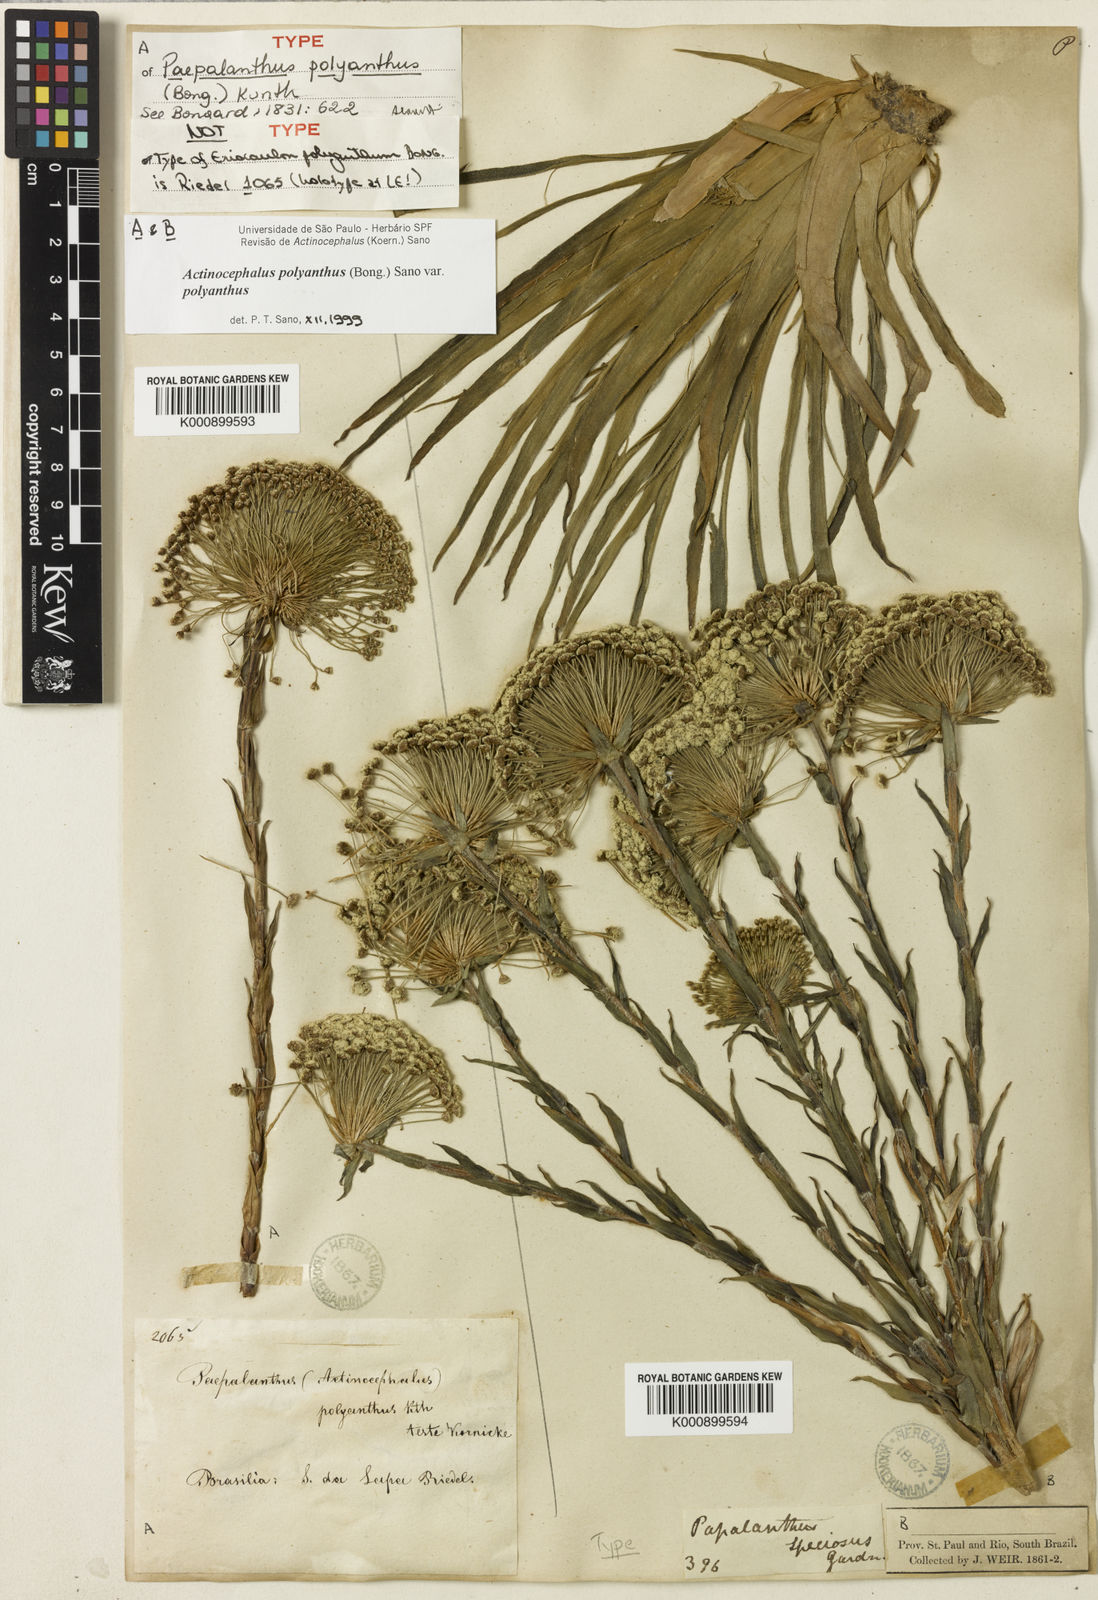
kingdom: Plantae
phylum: Tracheophyta
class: Liliopsida
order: Poales
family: Eriocaulaceae
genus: Paepalanthus
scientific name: Paepalanthus polyanthus
